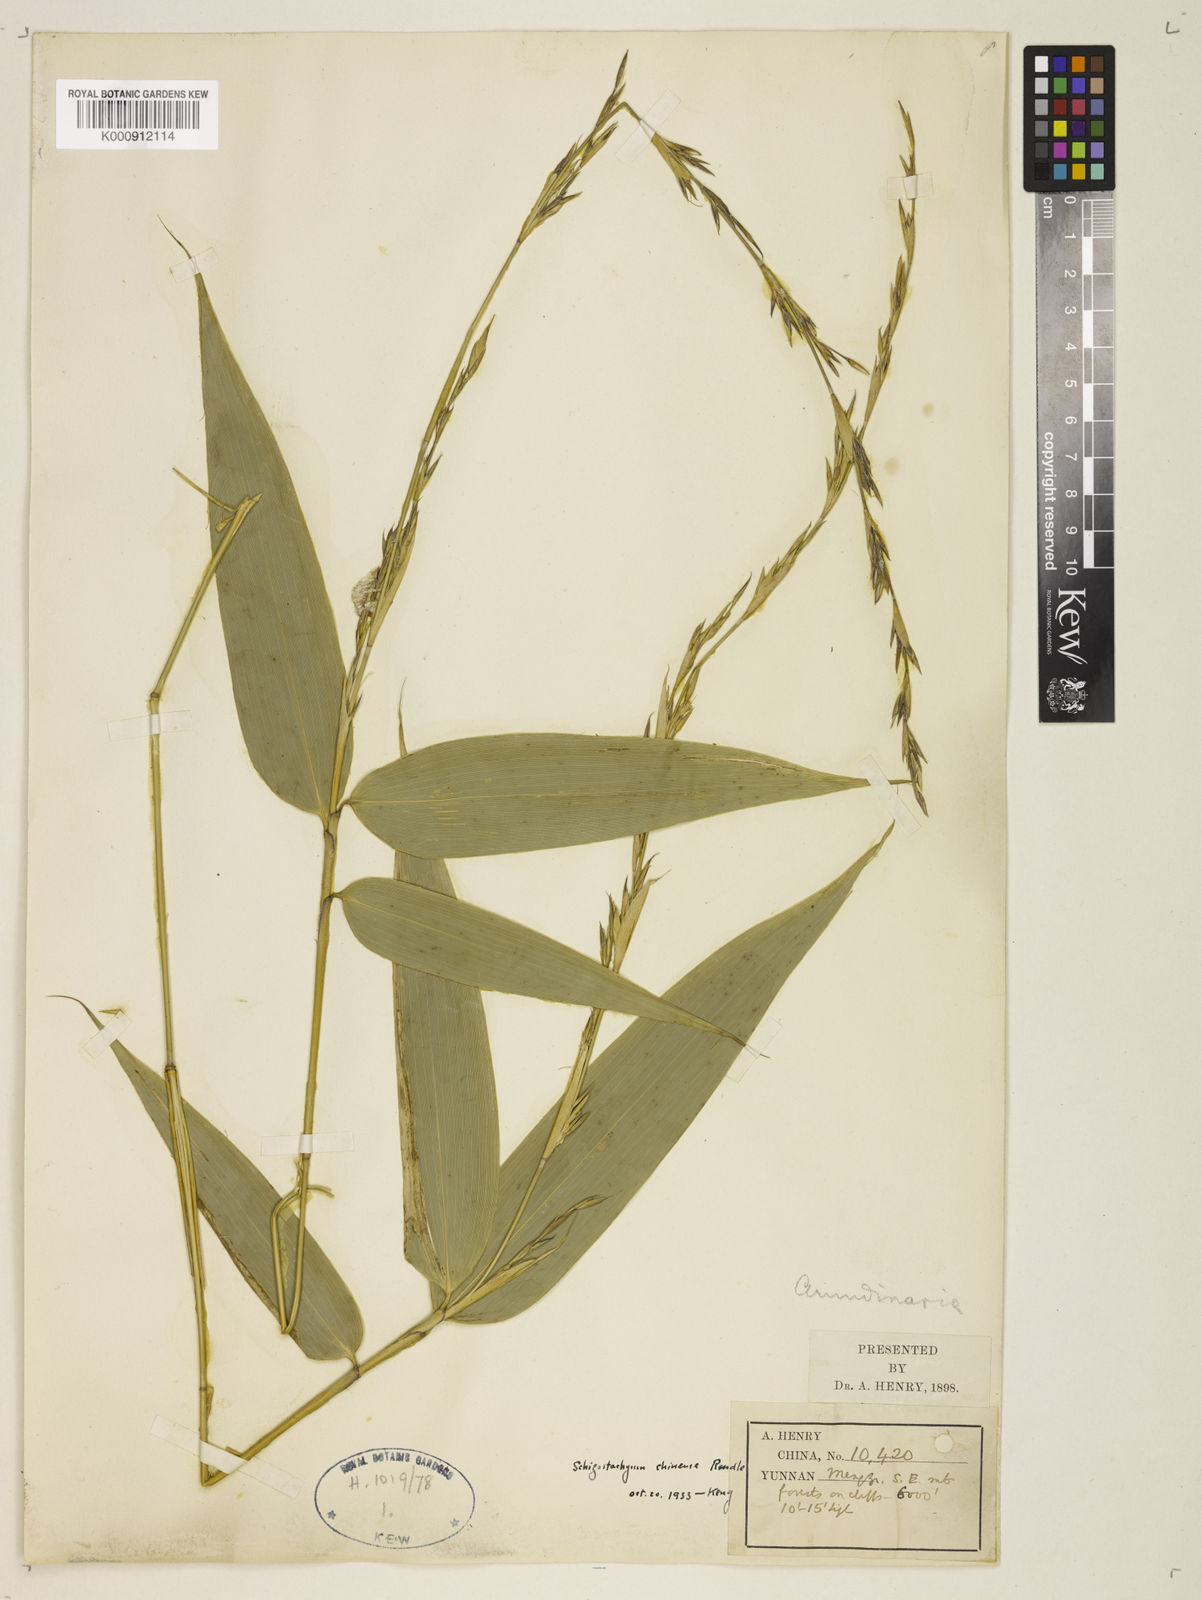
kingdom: Plantae
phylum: Tracheophyta
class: Liliopsida
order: Poales
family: Poaceae
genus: Cephalostachyum
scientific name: Cephalostachyum chinense
